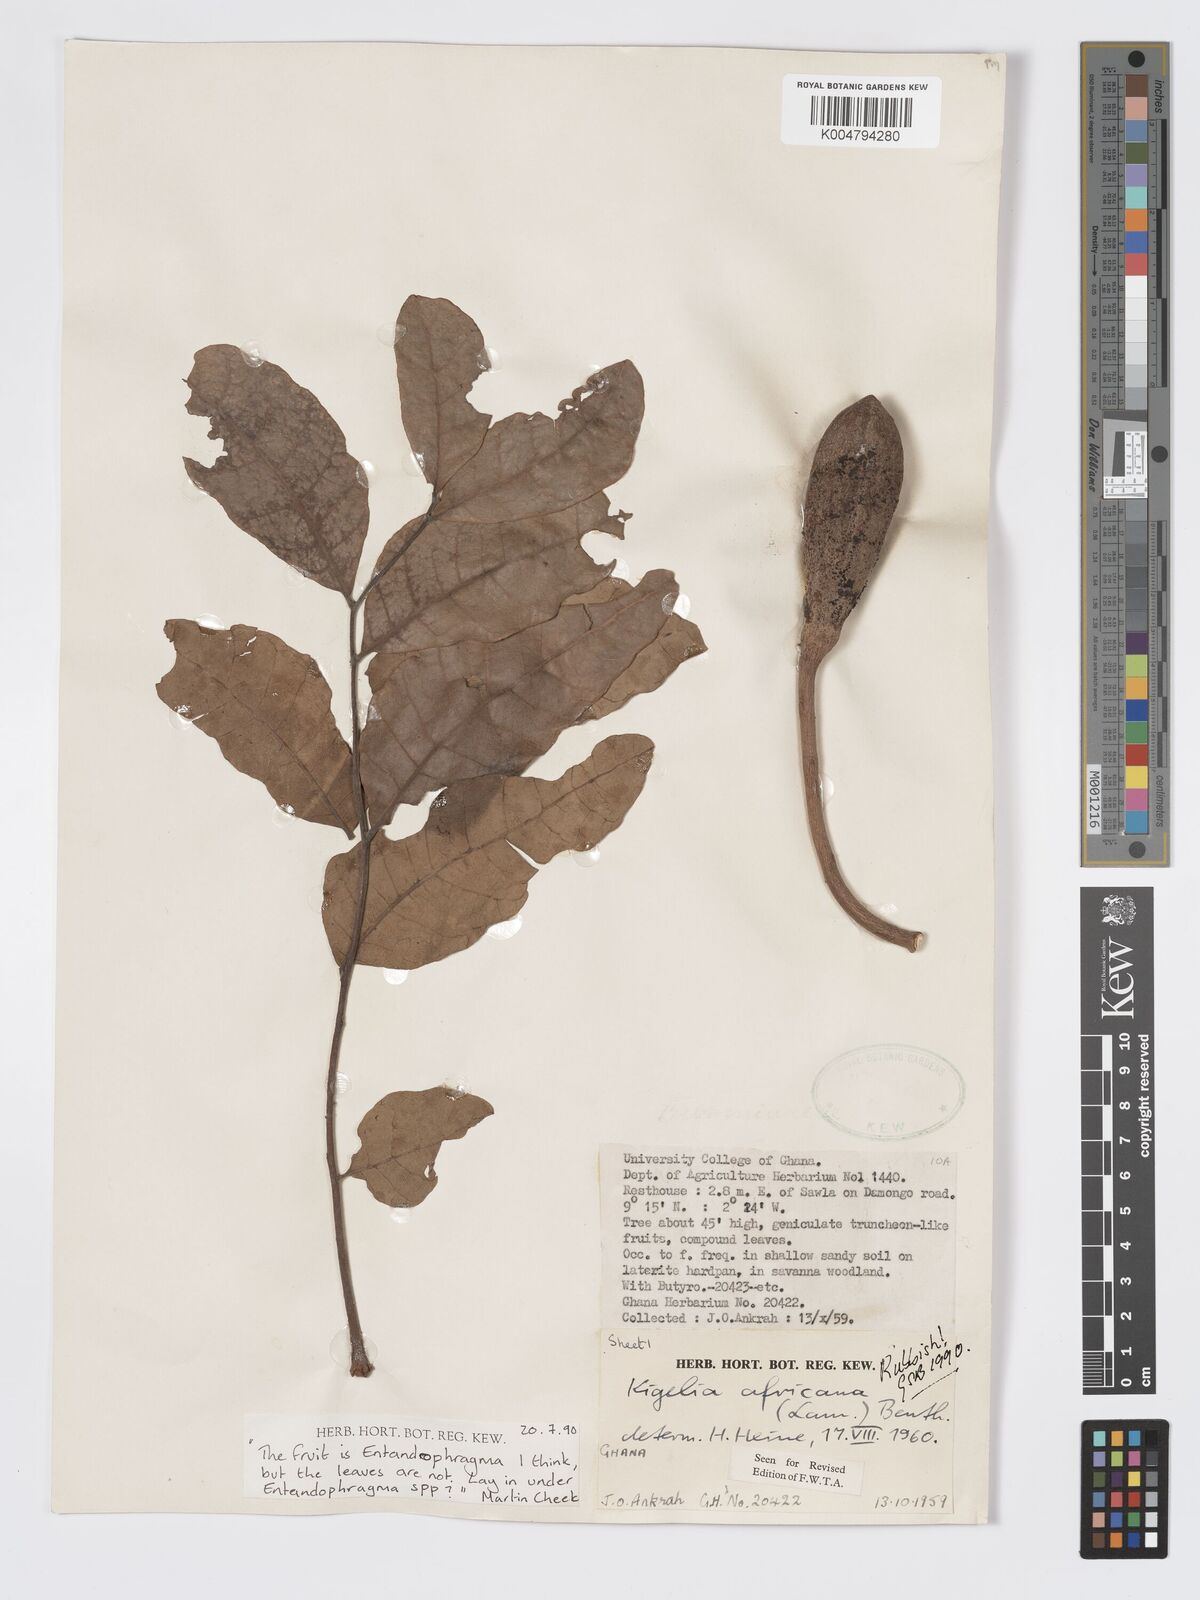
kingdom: Plantae
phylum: Tracheophyta
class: Magnoliopsida
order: Sapindales
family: Meliaceae
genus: Entandrophragma
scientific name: Entandrophragma
